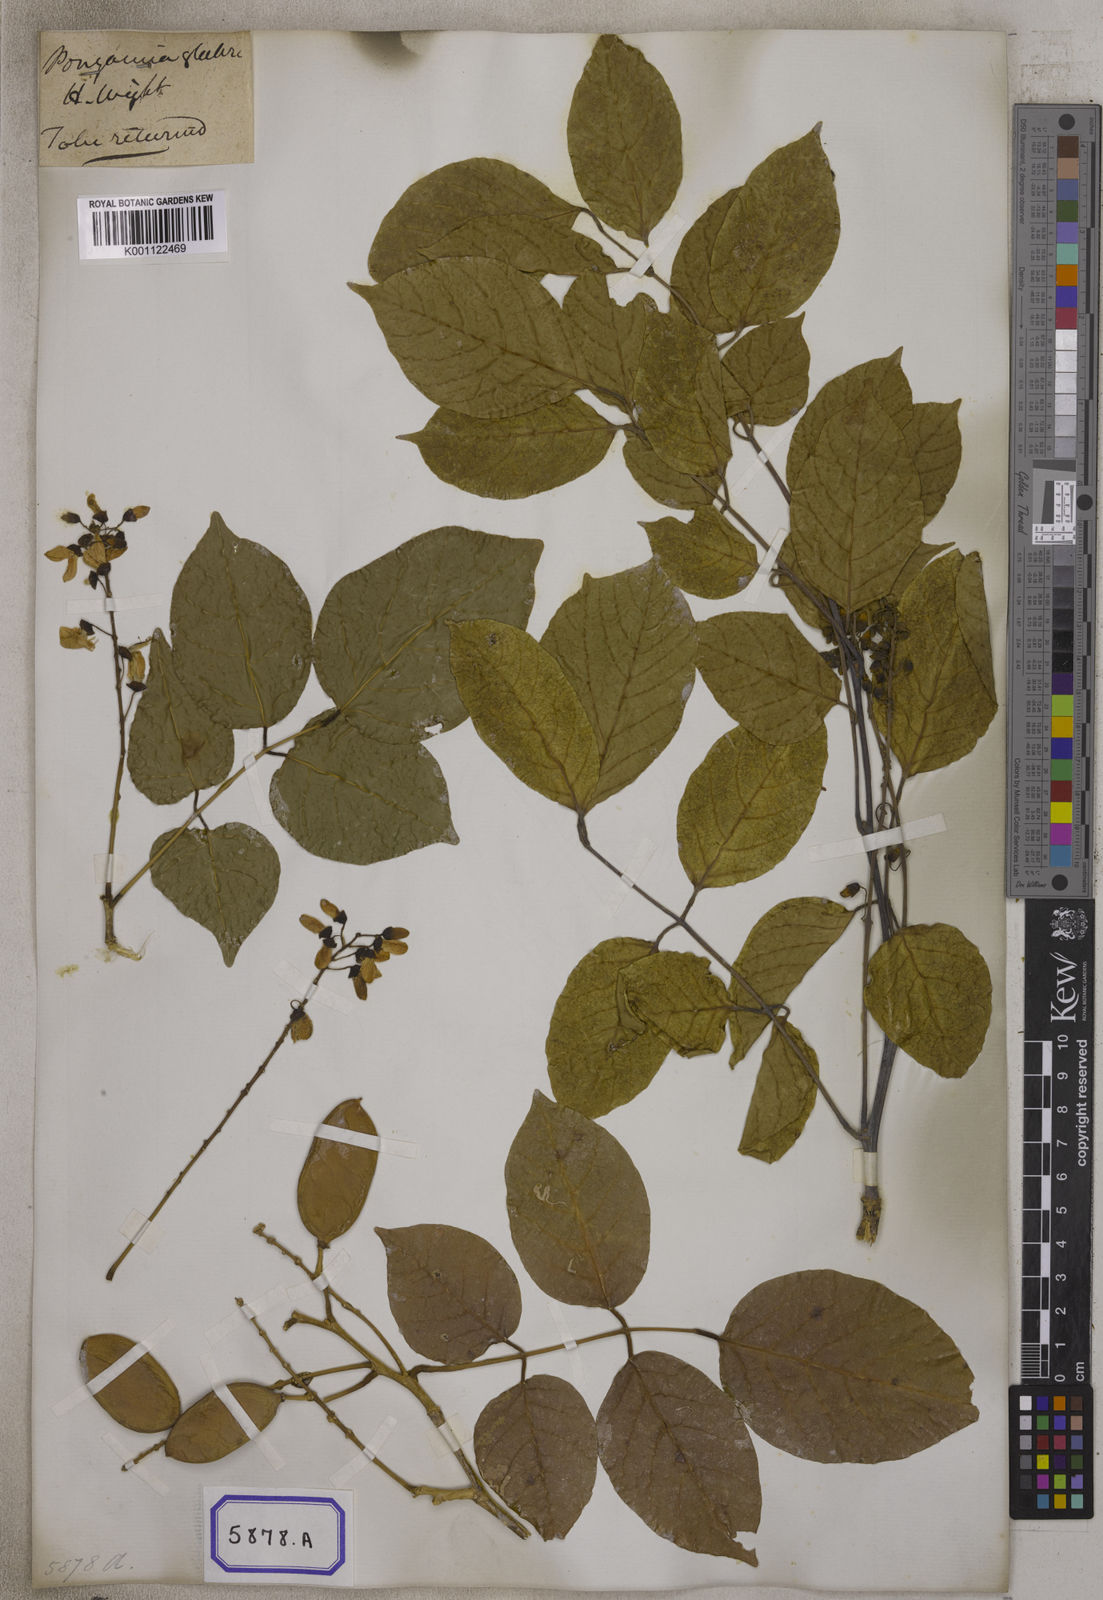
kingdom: Plantae
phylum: Tracheophyta
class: Magnoliopsida
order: Fabales
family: Fabaceae
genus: Pongamia
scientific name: Pongamia pinnata
